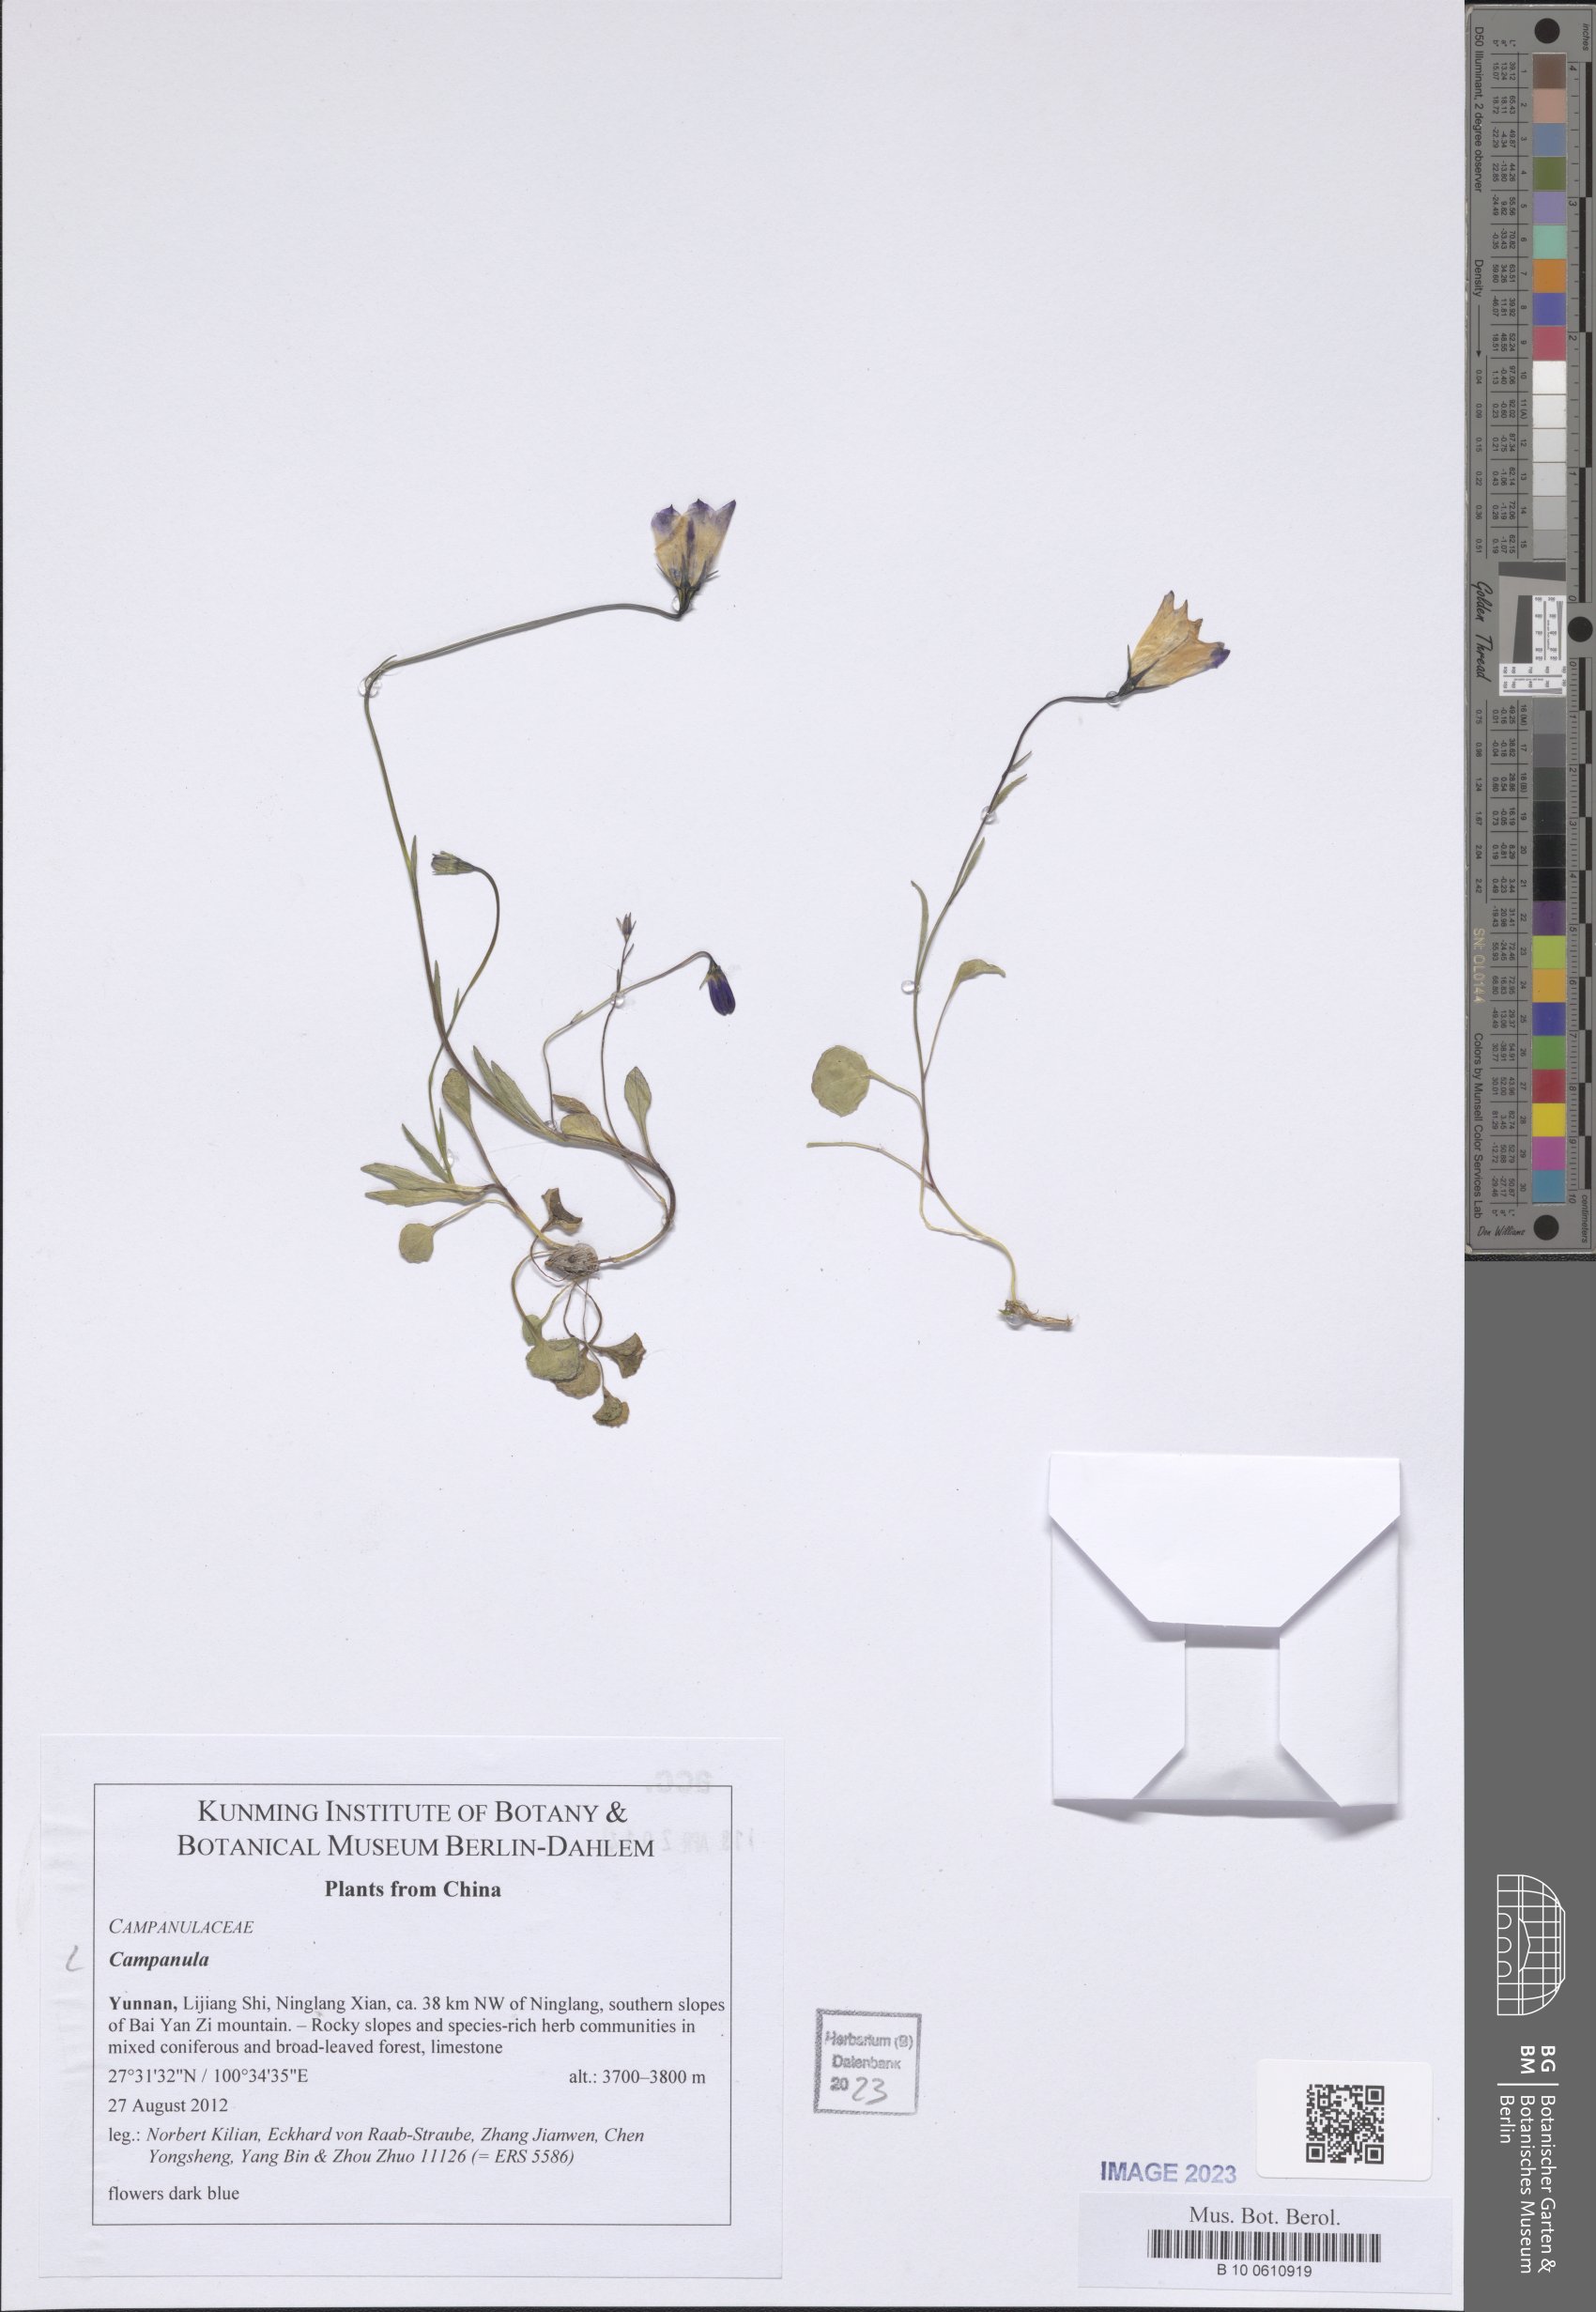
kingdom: Plantae
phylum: Tracheophyta
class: Magnoliopsida
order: Asterales
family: Campanulaceae
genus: Campanula
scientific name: Campanula
